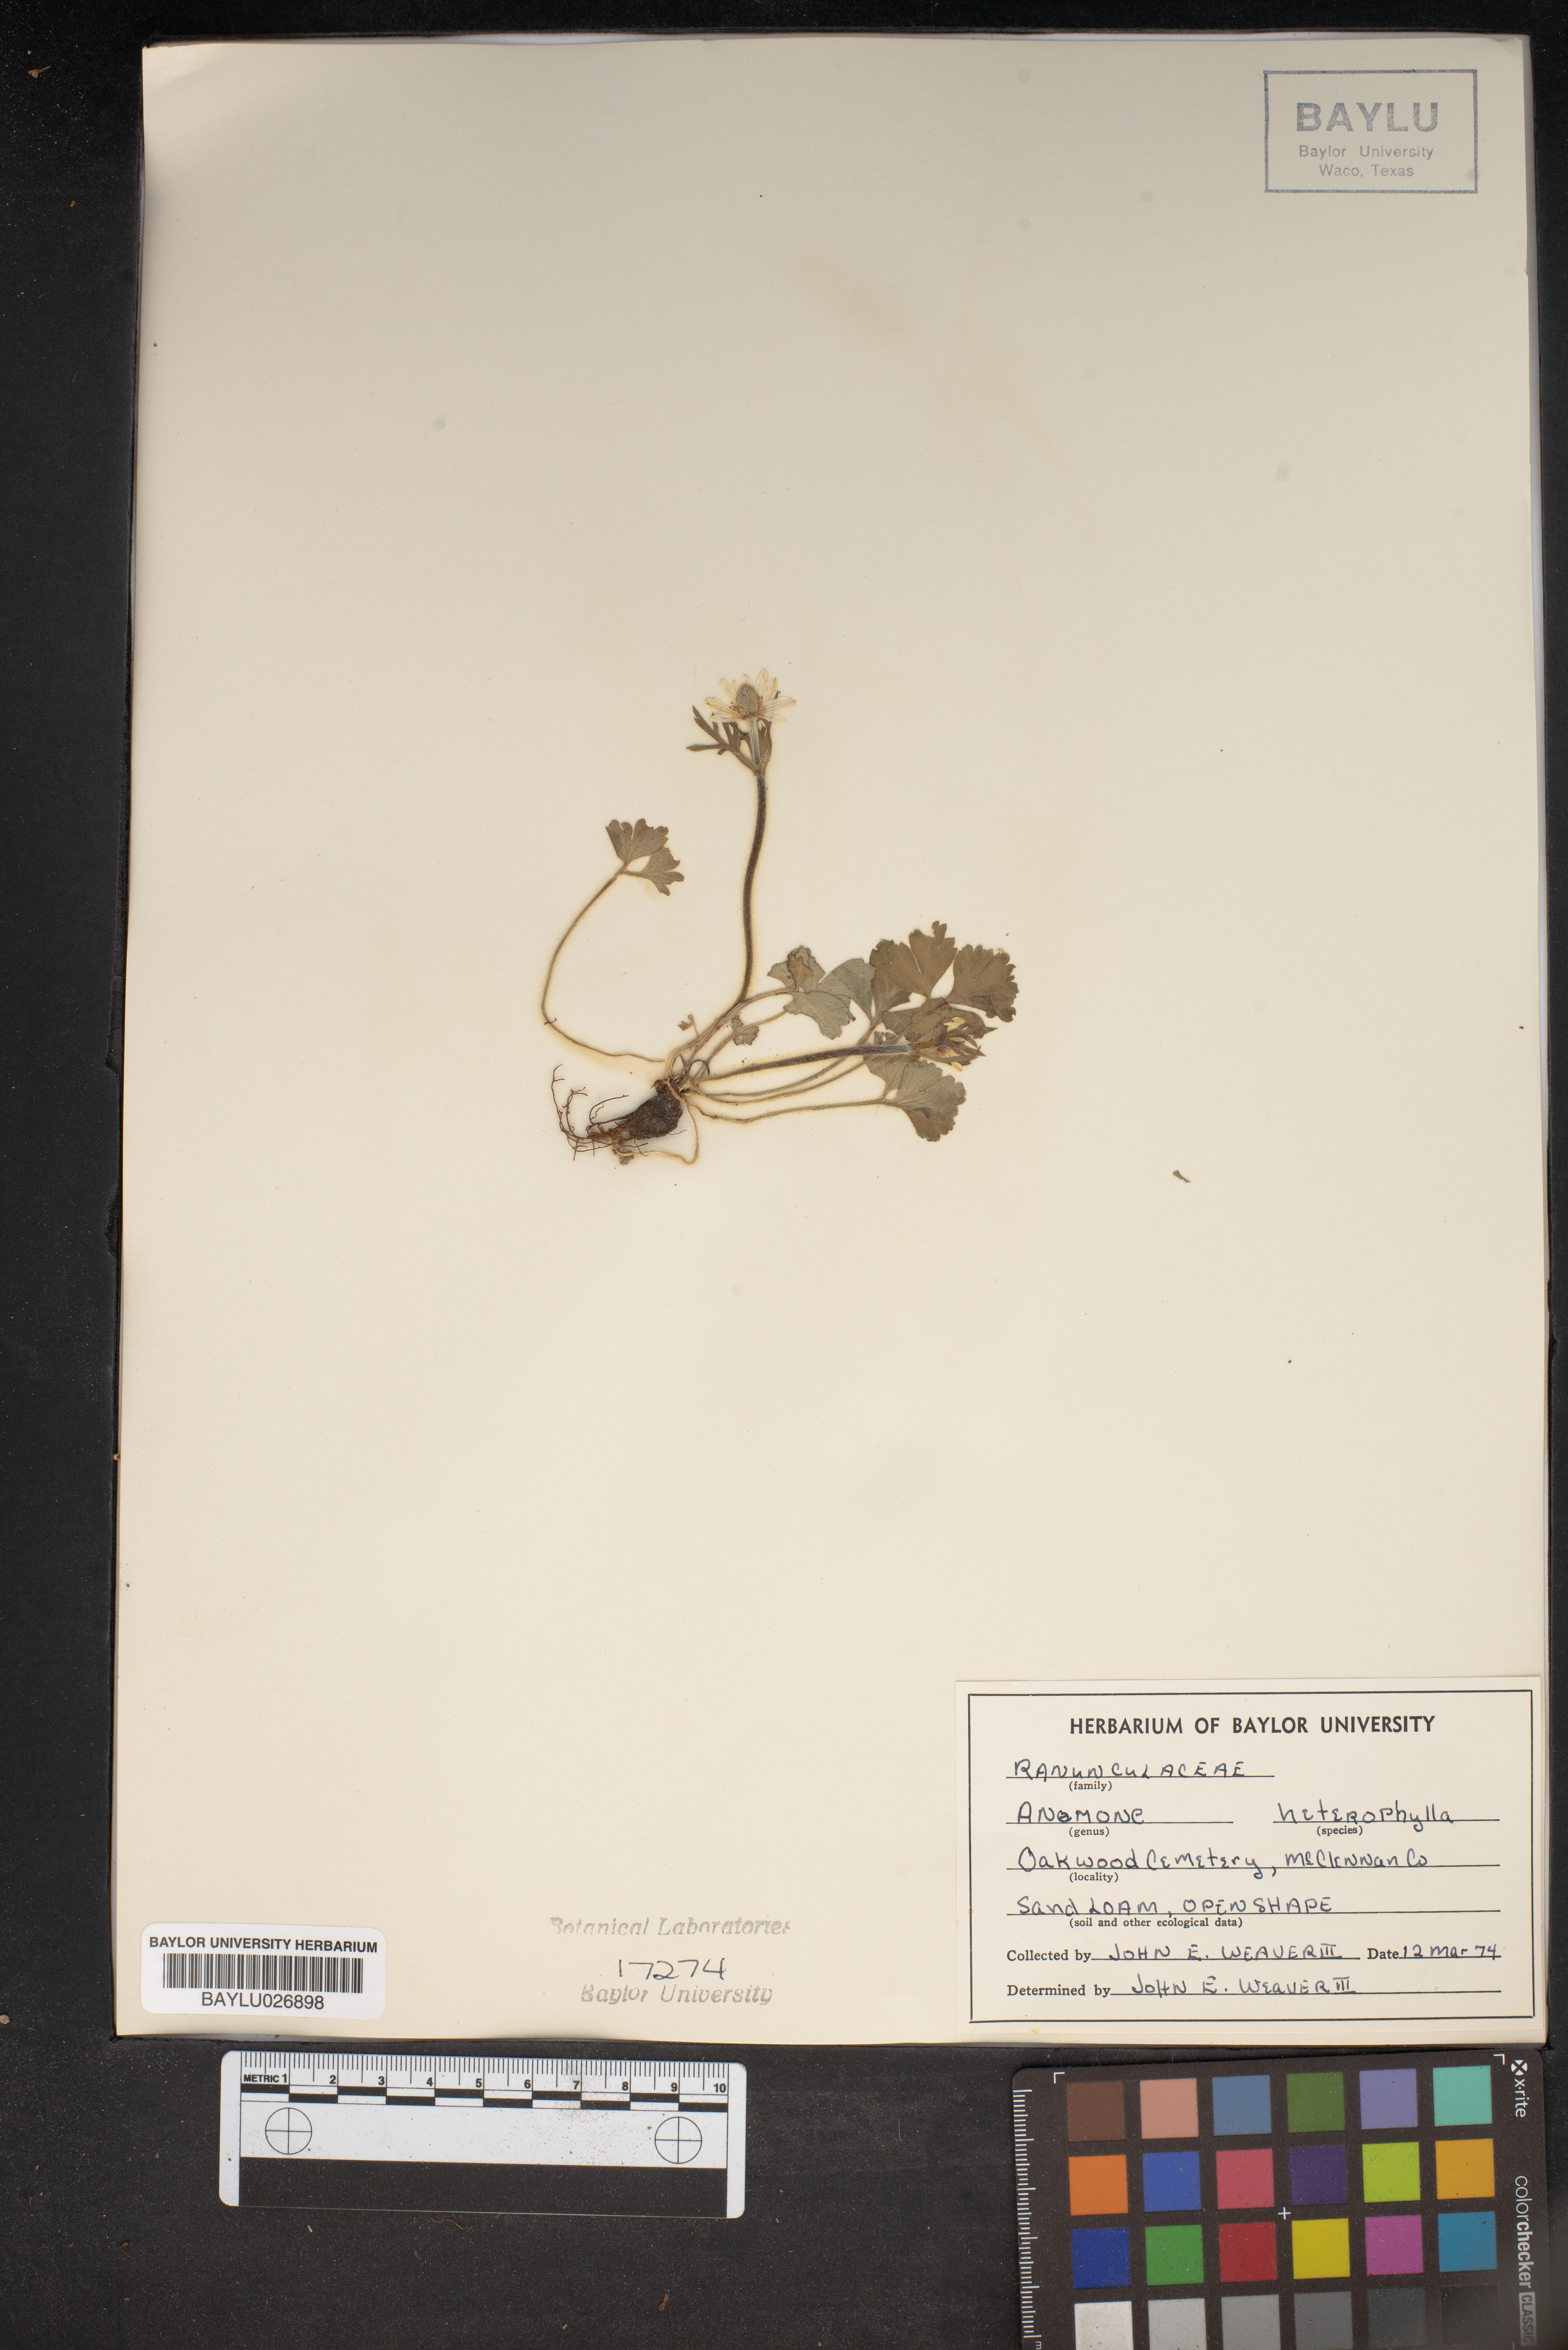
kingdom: Plantae
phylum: Tracheophyta
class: Magnoliopsida
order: Ranunculales
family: Ranunculaceae
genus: Anemone
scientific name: Anemone heterophylla
